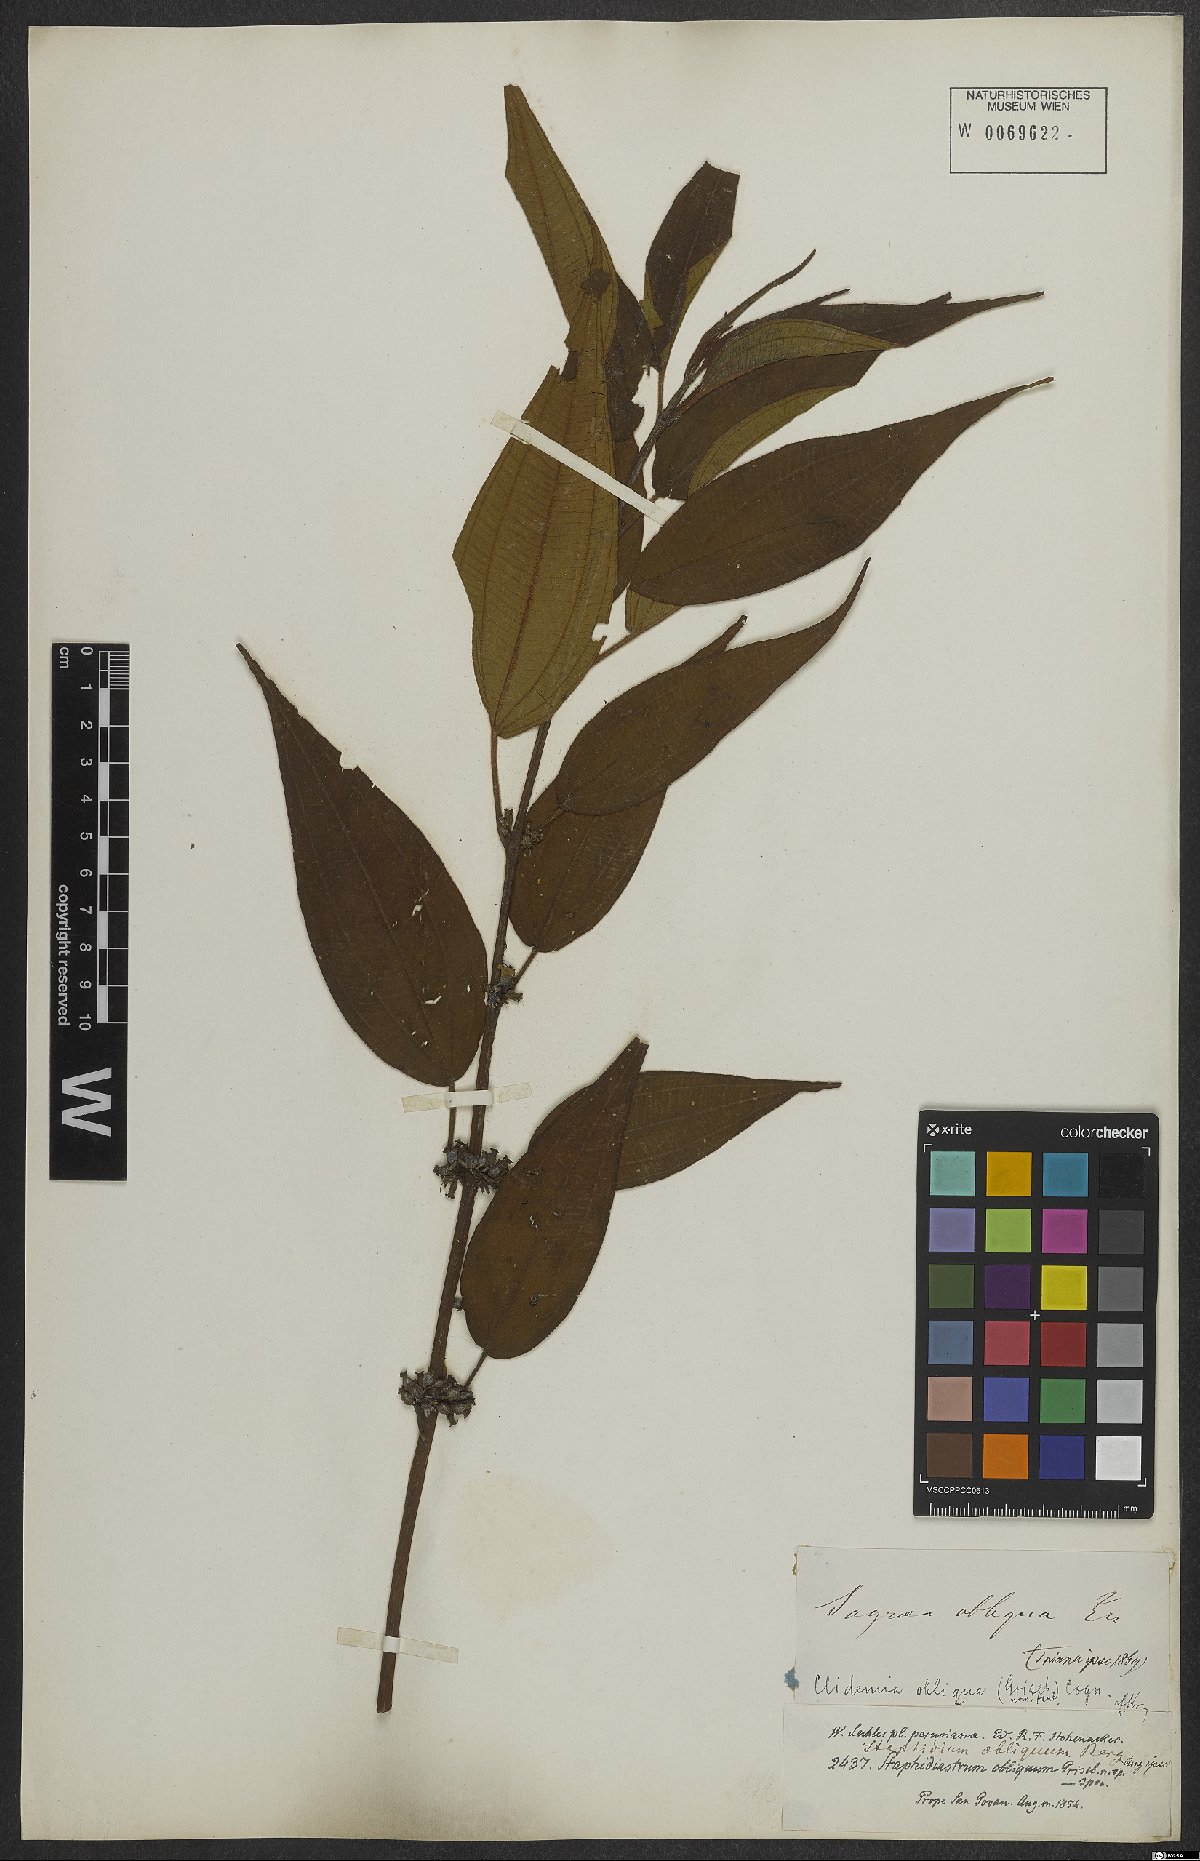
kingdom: Plantae
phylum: Tracheophyta
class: Magnoliopsida
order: Myrtales
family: Melastomataceae
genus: Miconia
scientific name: Miconia alaticaulis
